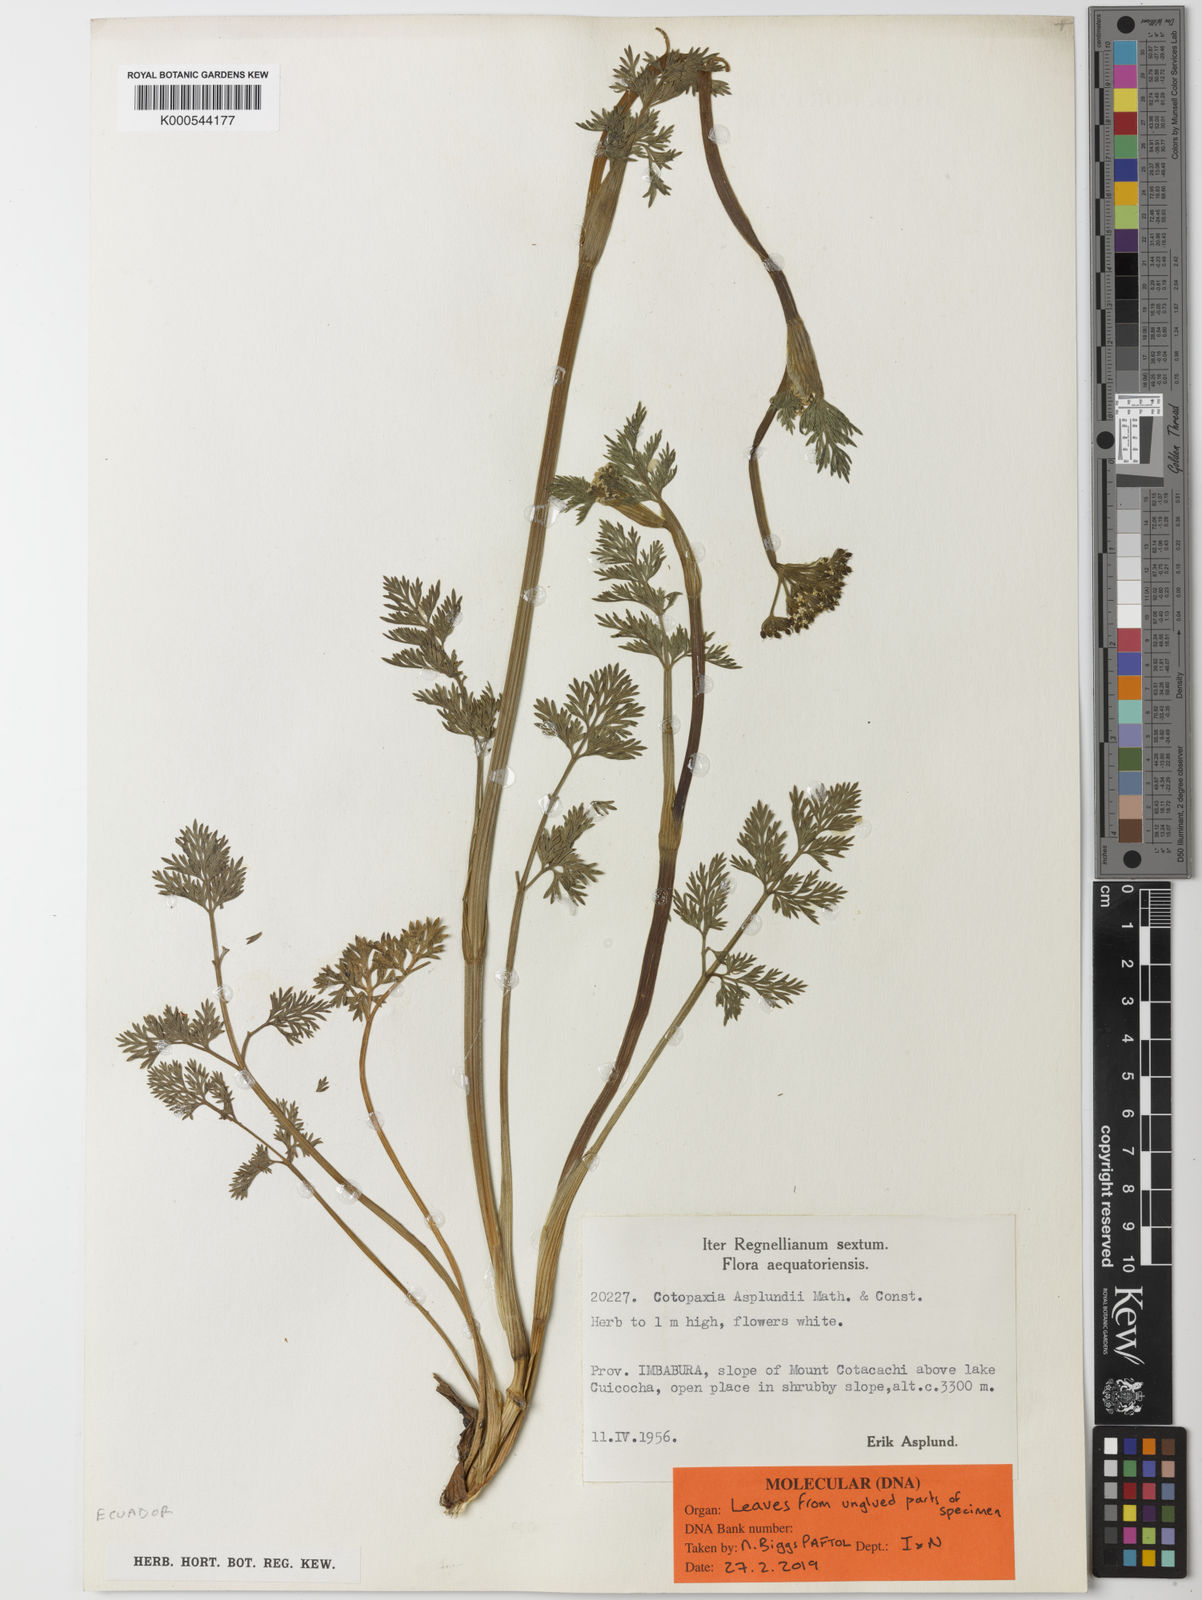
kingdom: Plantae
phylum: Tracheophyta
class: Magnoliopsida
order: Apiales
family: Apiaceae
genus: Cotopaxia
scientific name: Cotopaxia asplundii
